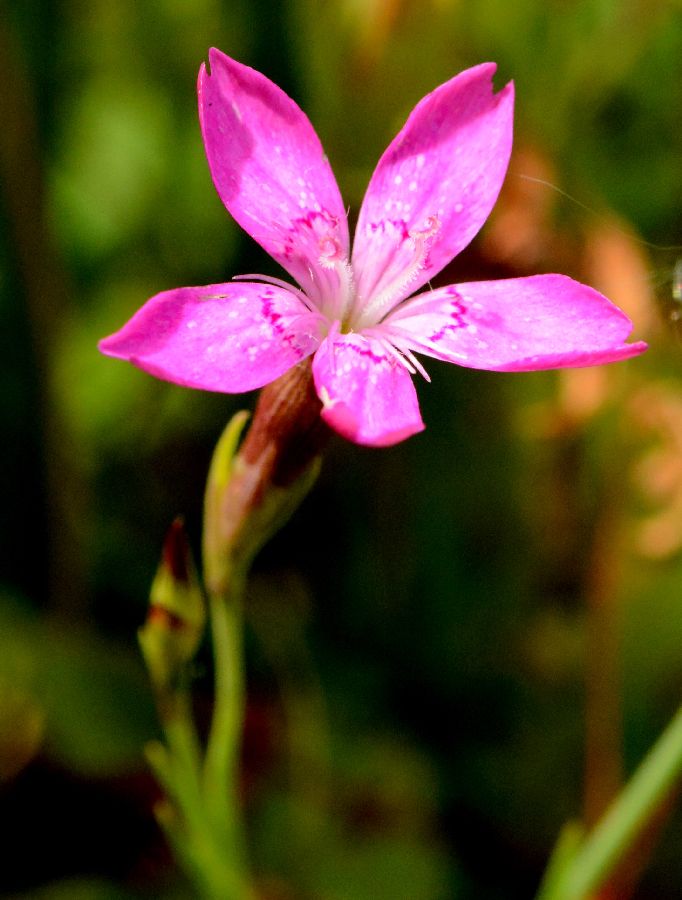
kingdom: Plantae
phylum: Tracheophyta
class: Magnoliopsida
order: Caryophyllales
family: Caryophyllaceae
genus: Dianthus
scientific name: Dianthus deltoides
